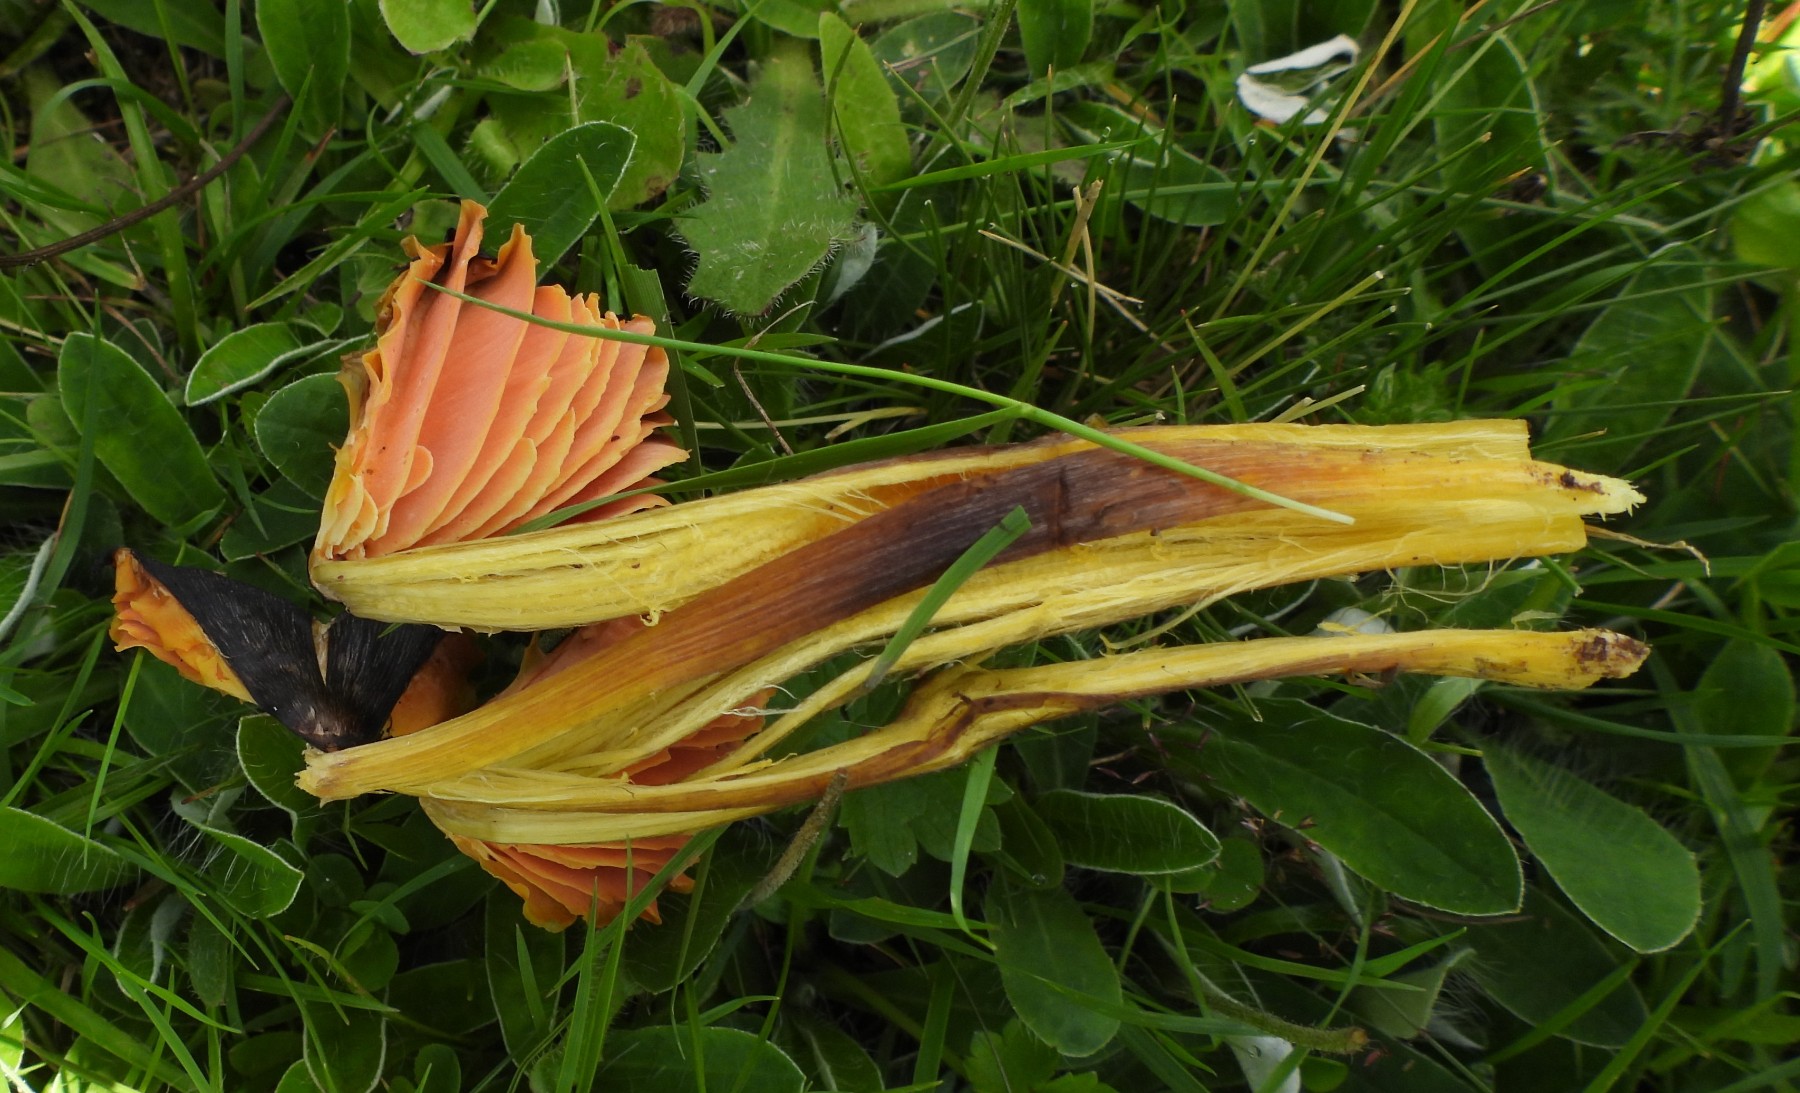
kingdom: Fungi
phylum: Basidiomycota
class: Agaricomycetes
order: Agaricales
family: Hygrophoraceae
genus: Hygrocybe
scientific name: Hygrocybe spadicea
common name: daddelbrun vokshat
